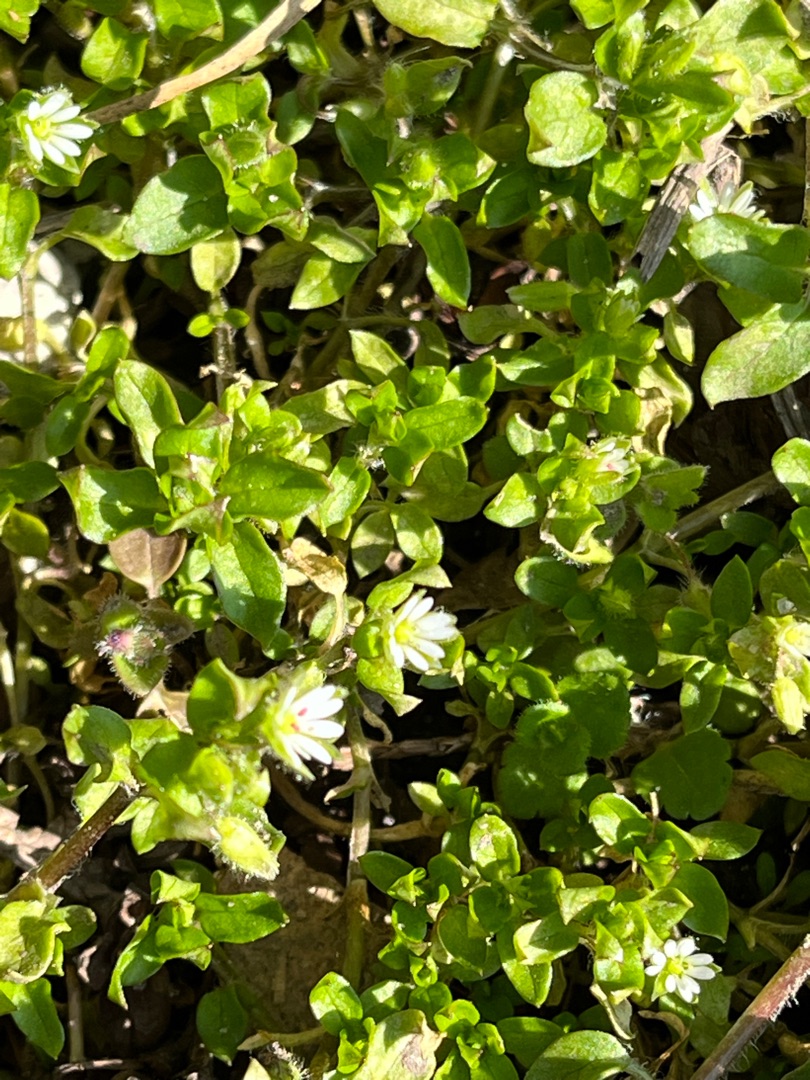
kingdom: Plantae
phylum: Tracheophyta
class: Magnoliopsida
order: Caryophyllales
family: Caryophyllaceae
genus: Stellaria
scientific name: Stellaria media
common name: Almindelig fuglegræs
